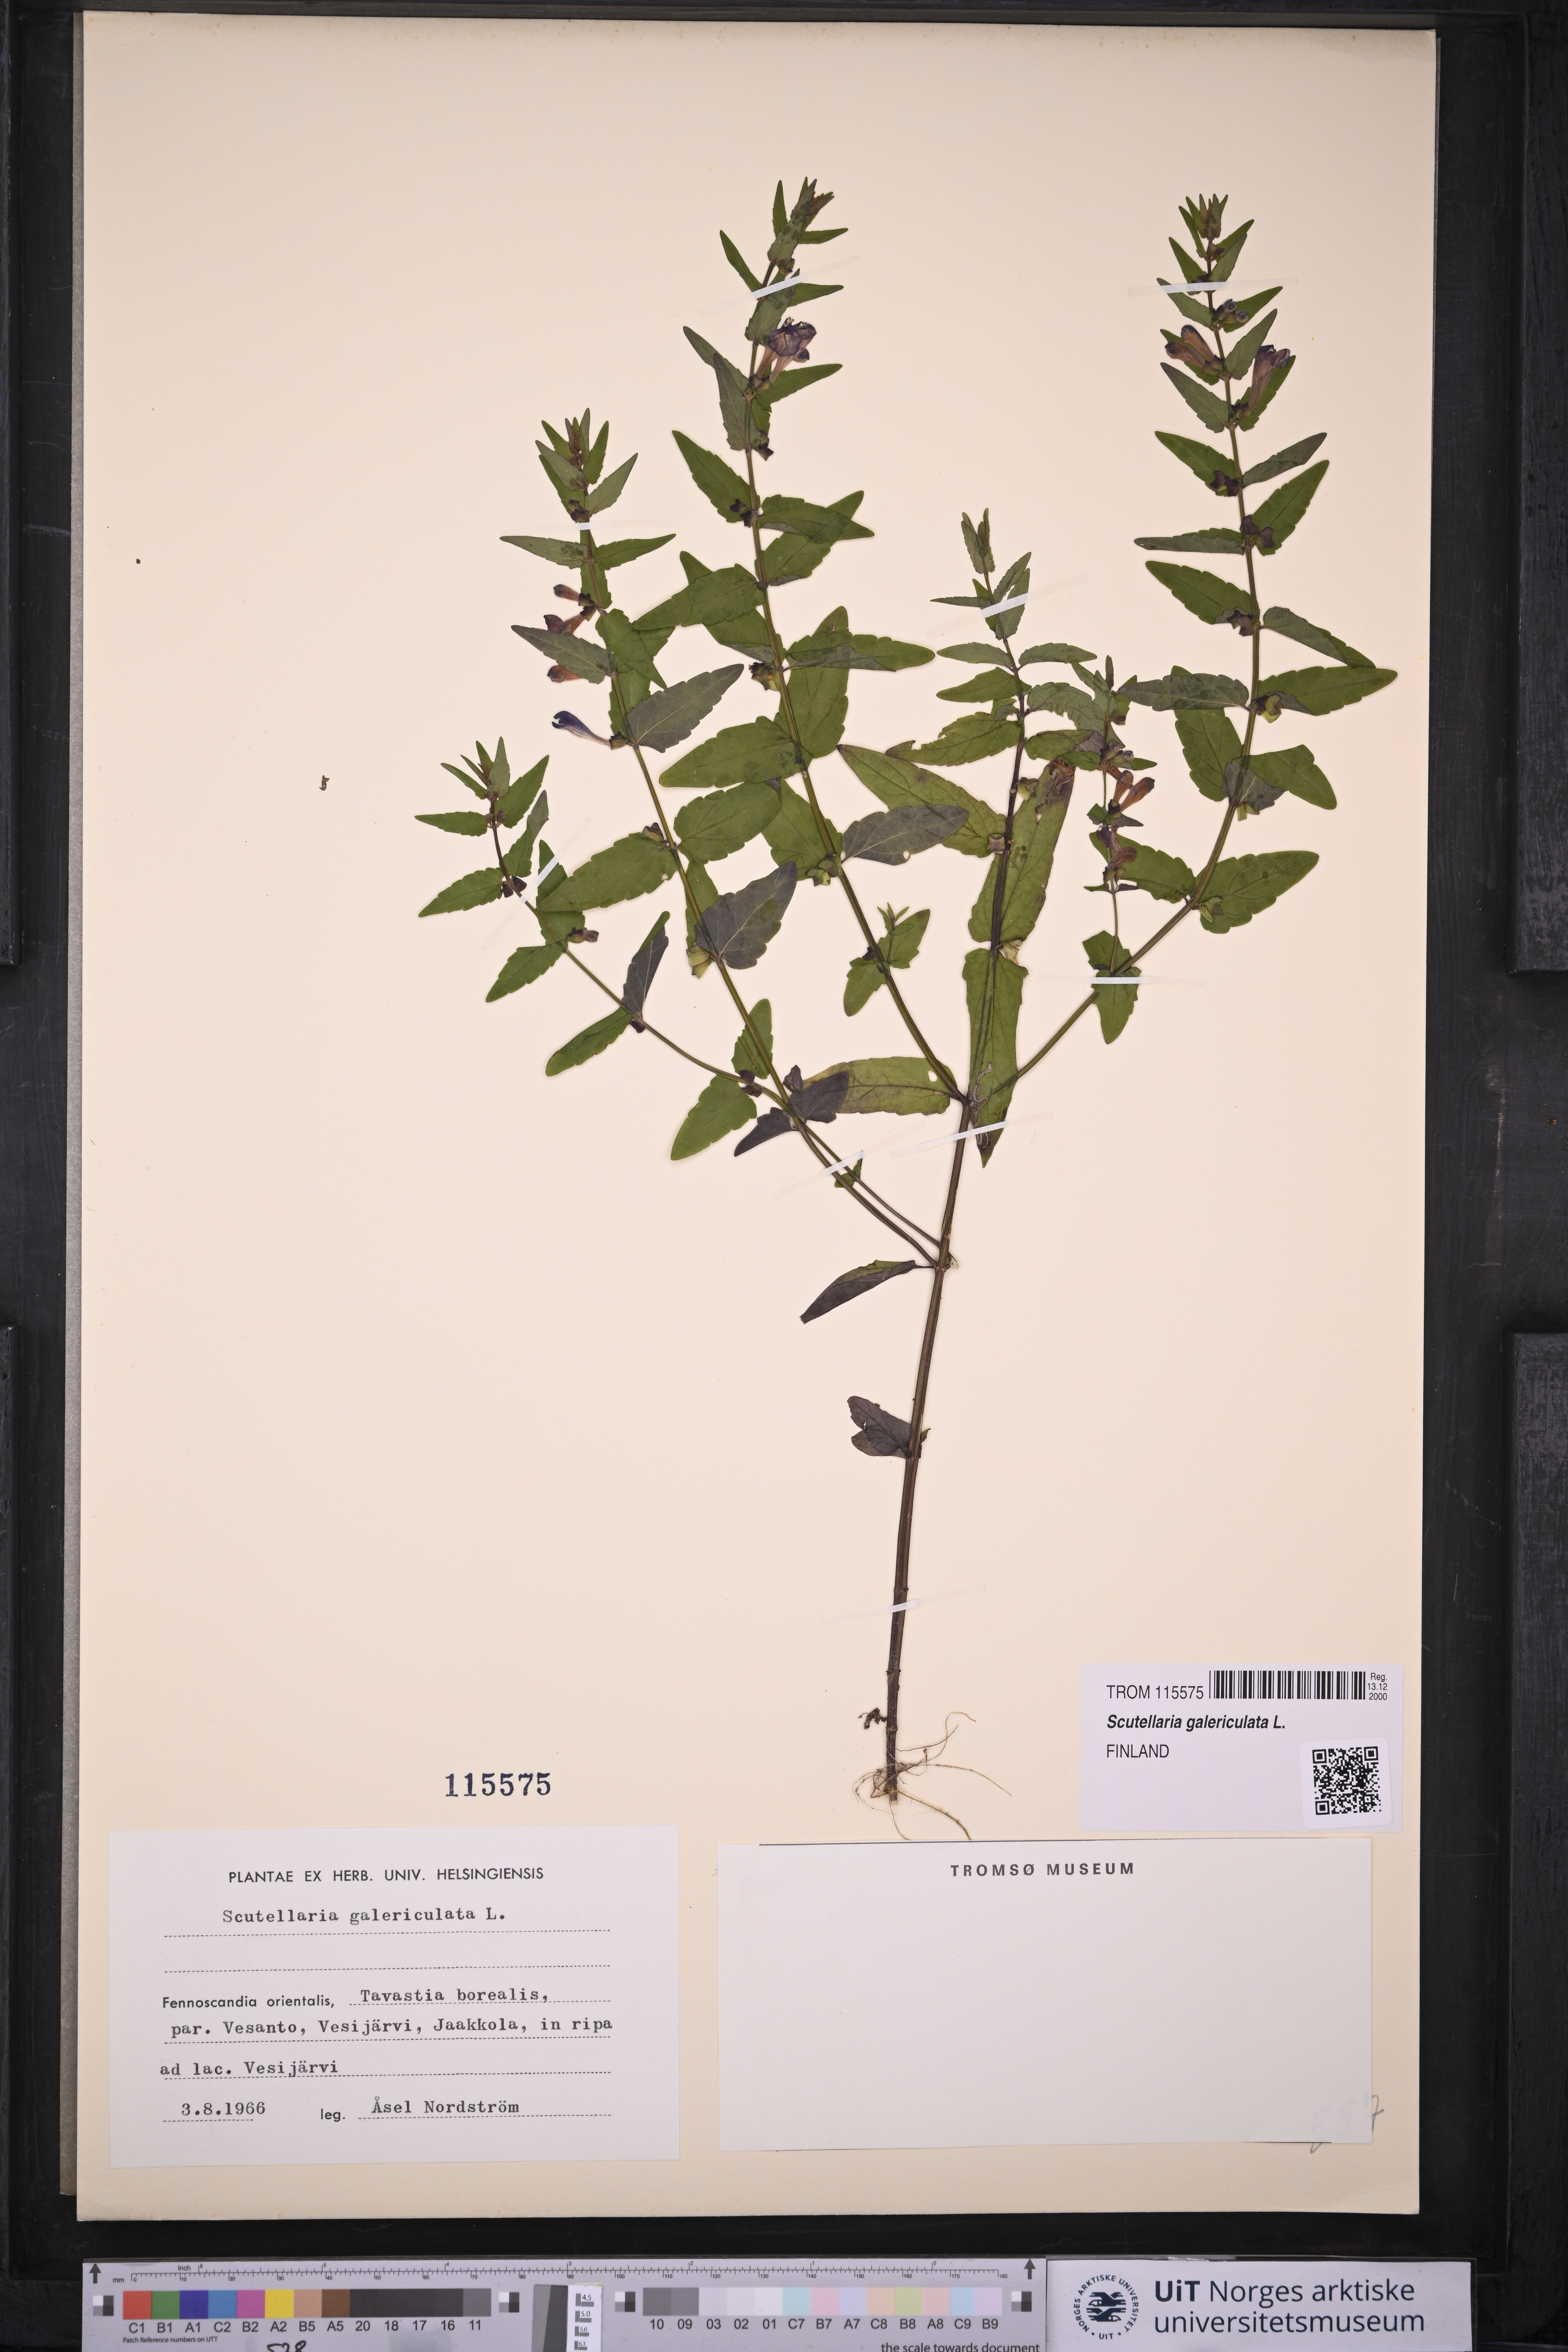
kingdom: Plantae
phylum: Tracheophyta
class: Magnoliopsida
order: Lamiales
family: Lamiaceae
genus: Scutellaria
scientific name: Scutellaria galericulata
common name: Skullcap
